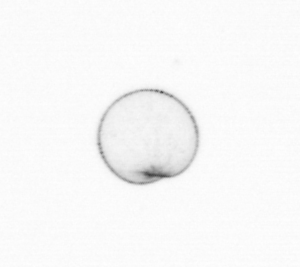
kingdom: Chromista
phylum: Myzozoa
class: Dinophyceae
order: Noctilucales
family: Noctilucaceae
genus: Noctiluca
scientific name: Noctiluca scintillans
